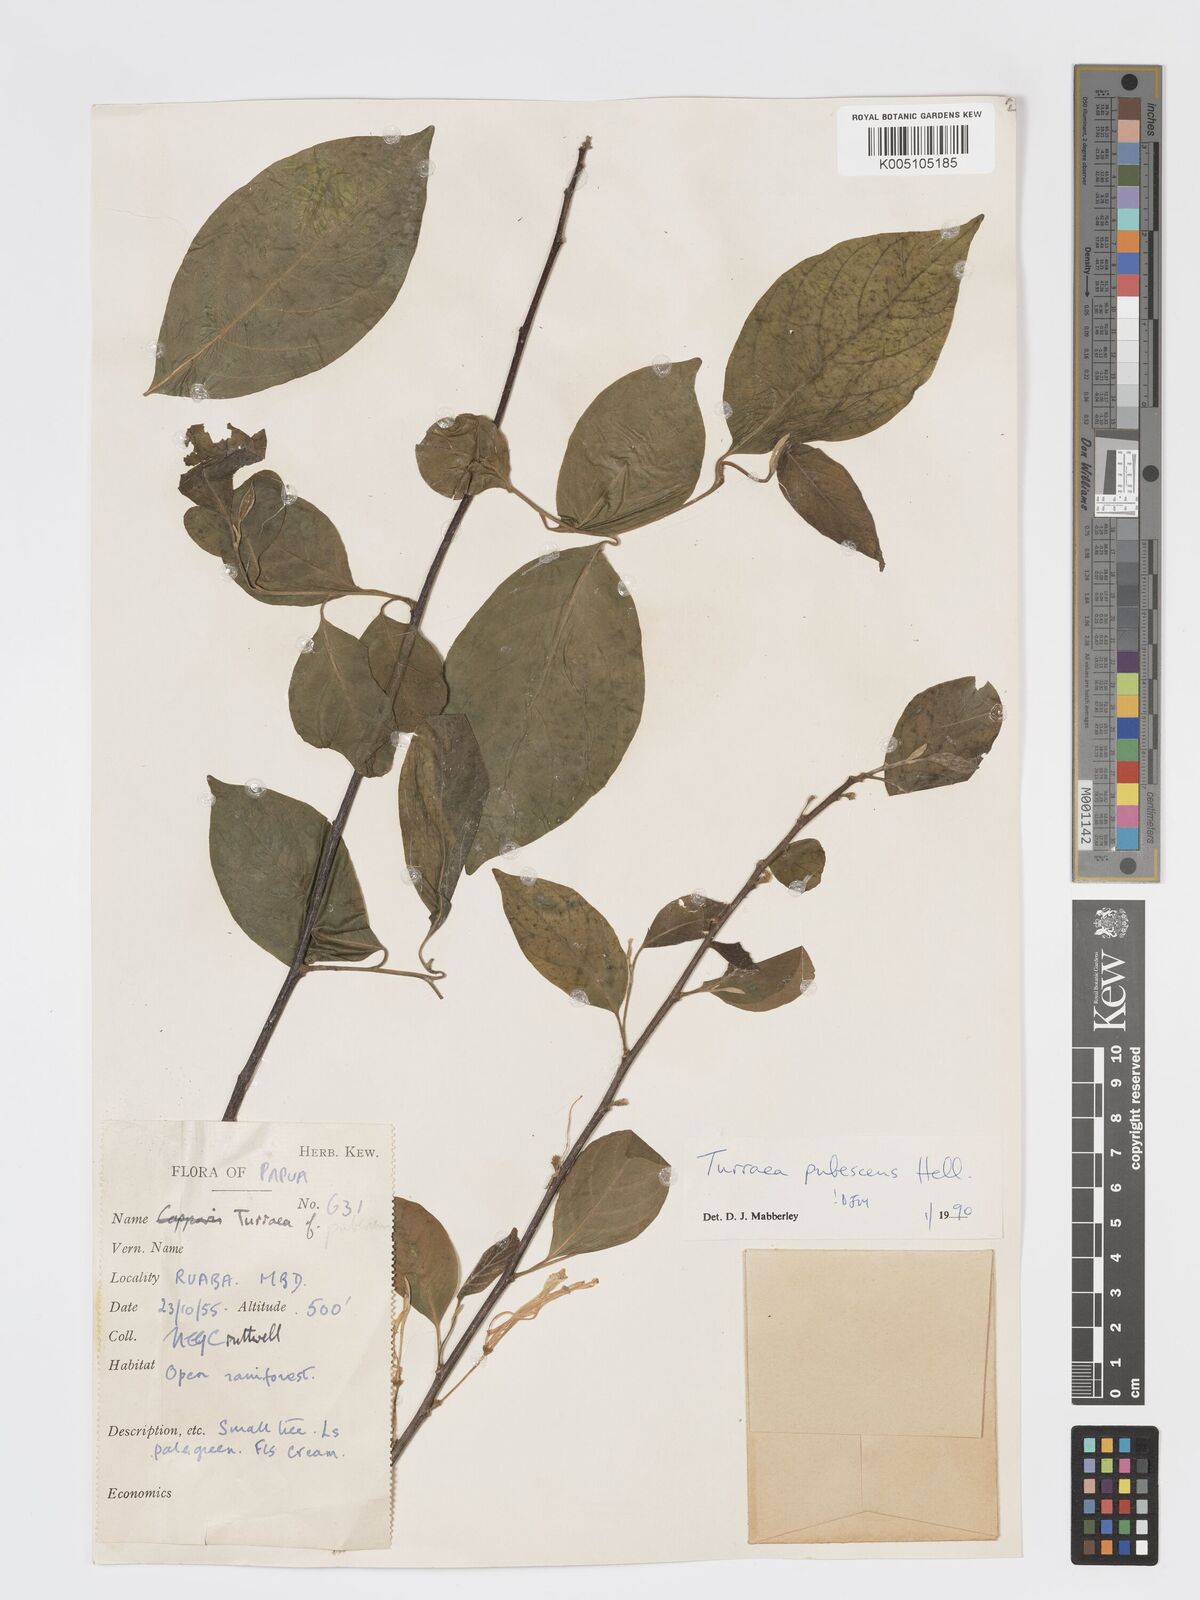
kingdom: Plantae
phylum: Tracheophyta
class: Magnoliopsida
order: Sapindales
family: Meliaceae
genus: Turraea
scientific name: Turraea
